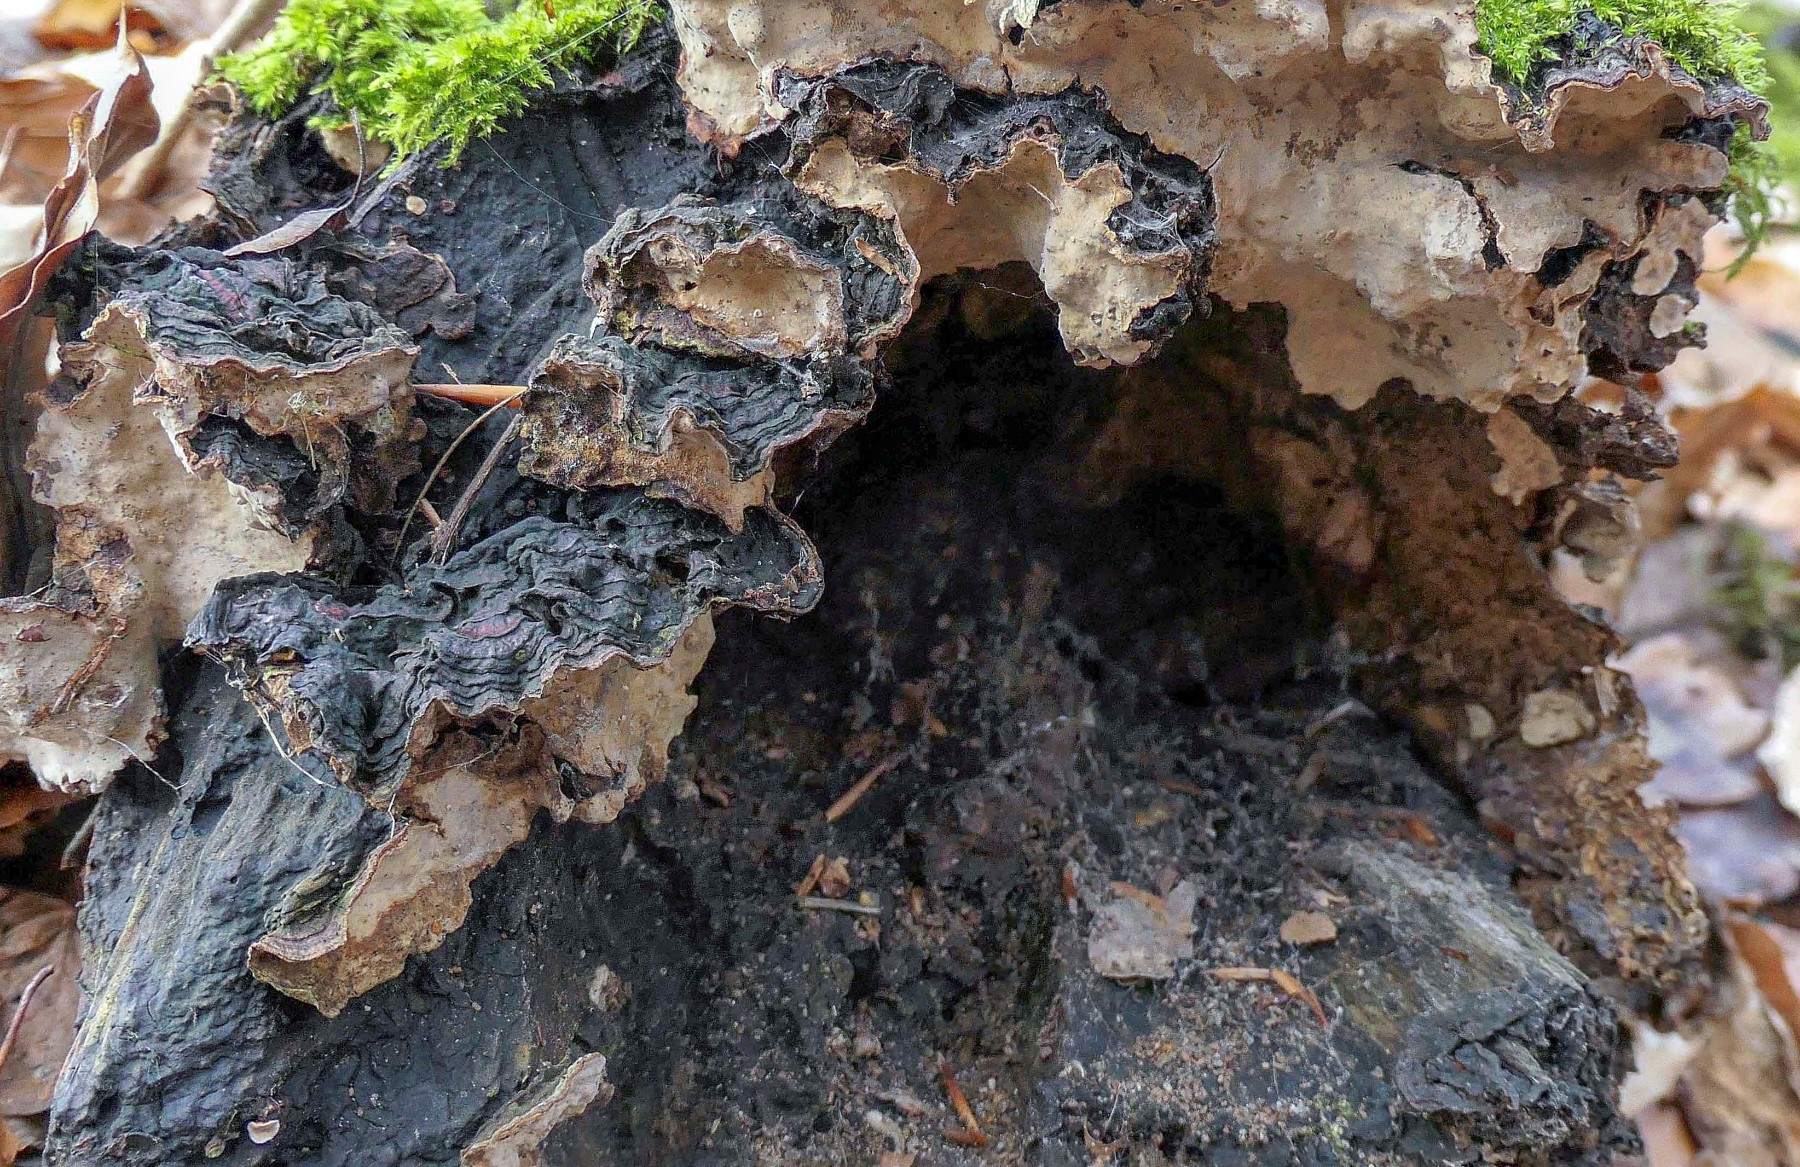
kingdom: Fungi
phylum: Basidiomycota
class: Agaricomycetes
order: Russulales
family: Stereaceae
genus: Stereum
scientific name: Stereum rugosum
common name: rynket lædersvamp
